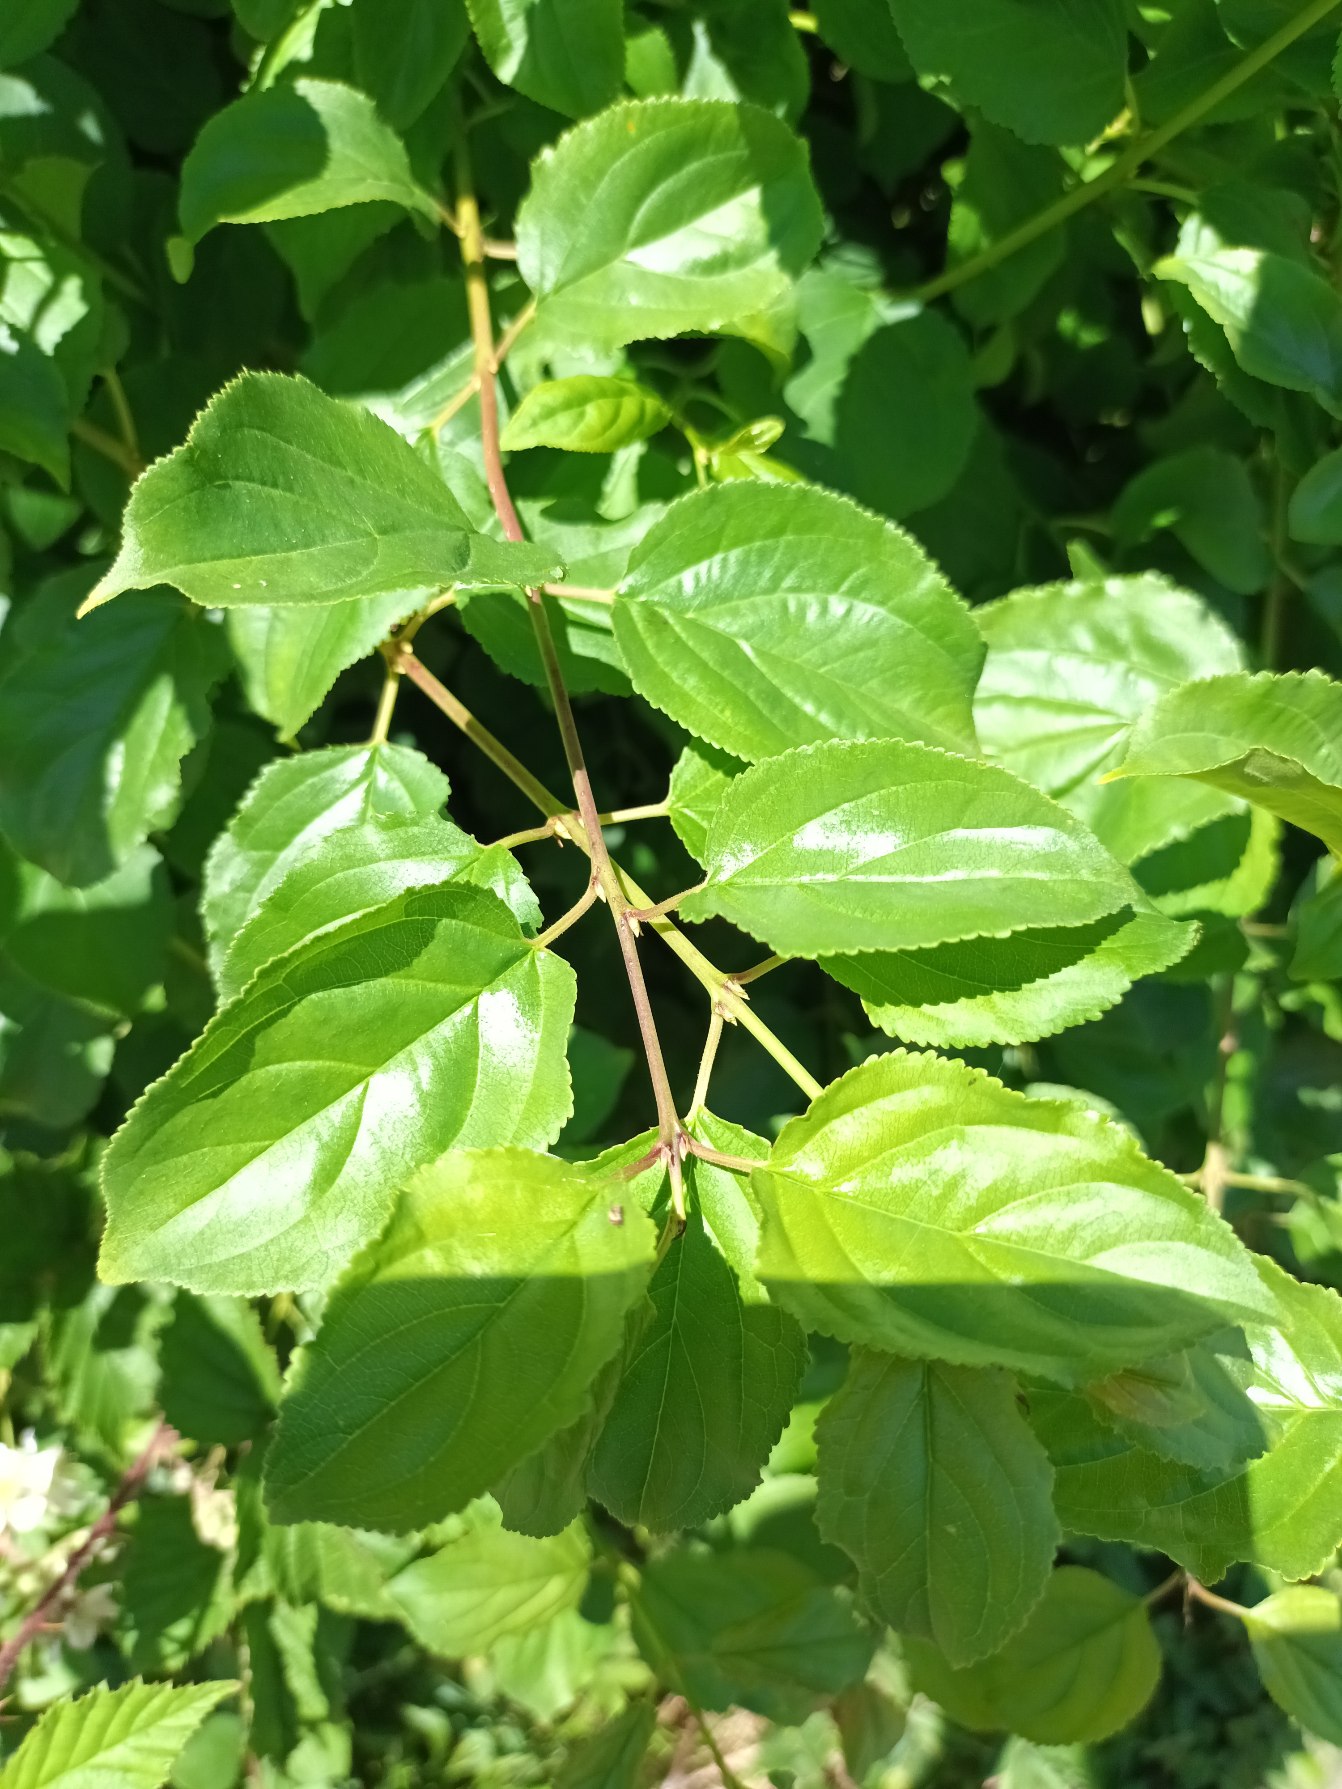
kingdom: Plantae
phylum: Tracheophyta
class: Magnoliopsida
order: Rosales
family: Rhamnaceae
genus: Rhamnus
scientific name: Rhamnus cathartica
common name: Vrietorn
